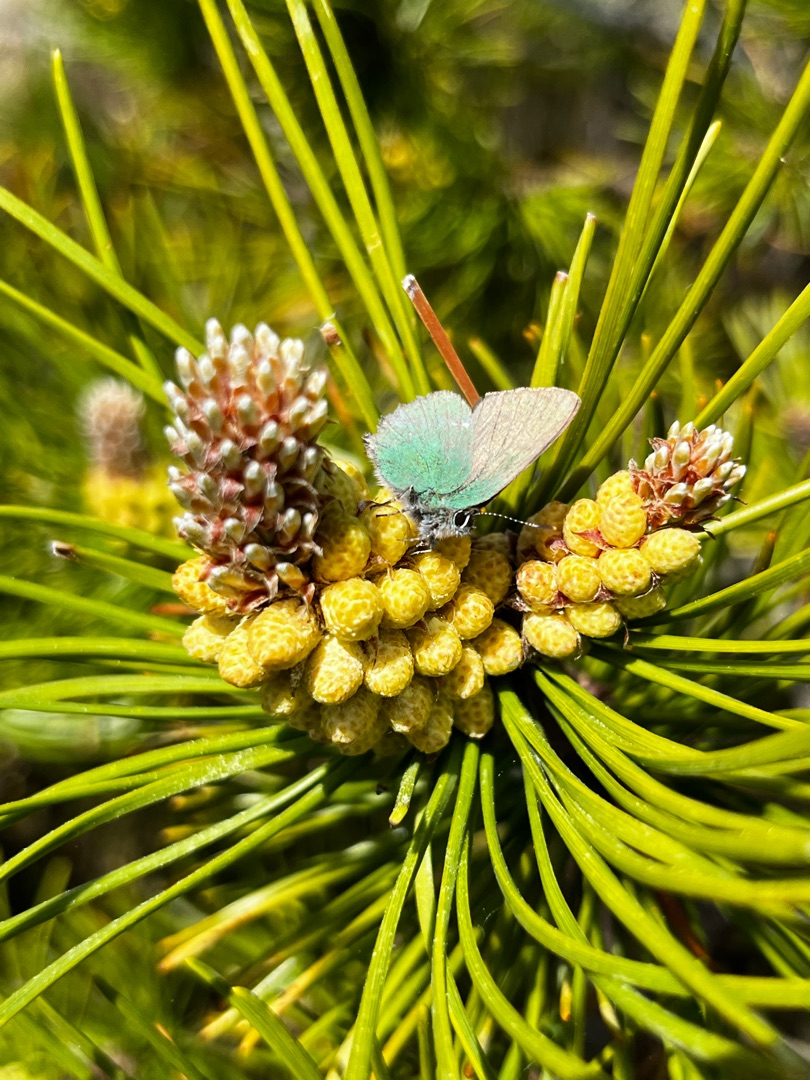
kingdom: Animalia
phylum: Arthropoda
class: Insecta
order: Lepidoptera
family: Lycaenidae
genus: Callophrys
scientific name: Callophrys rubi
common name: Grøn busksommerfugl
